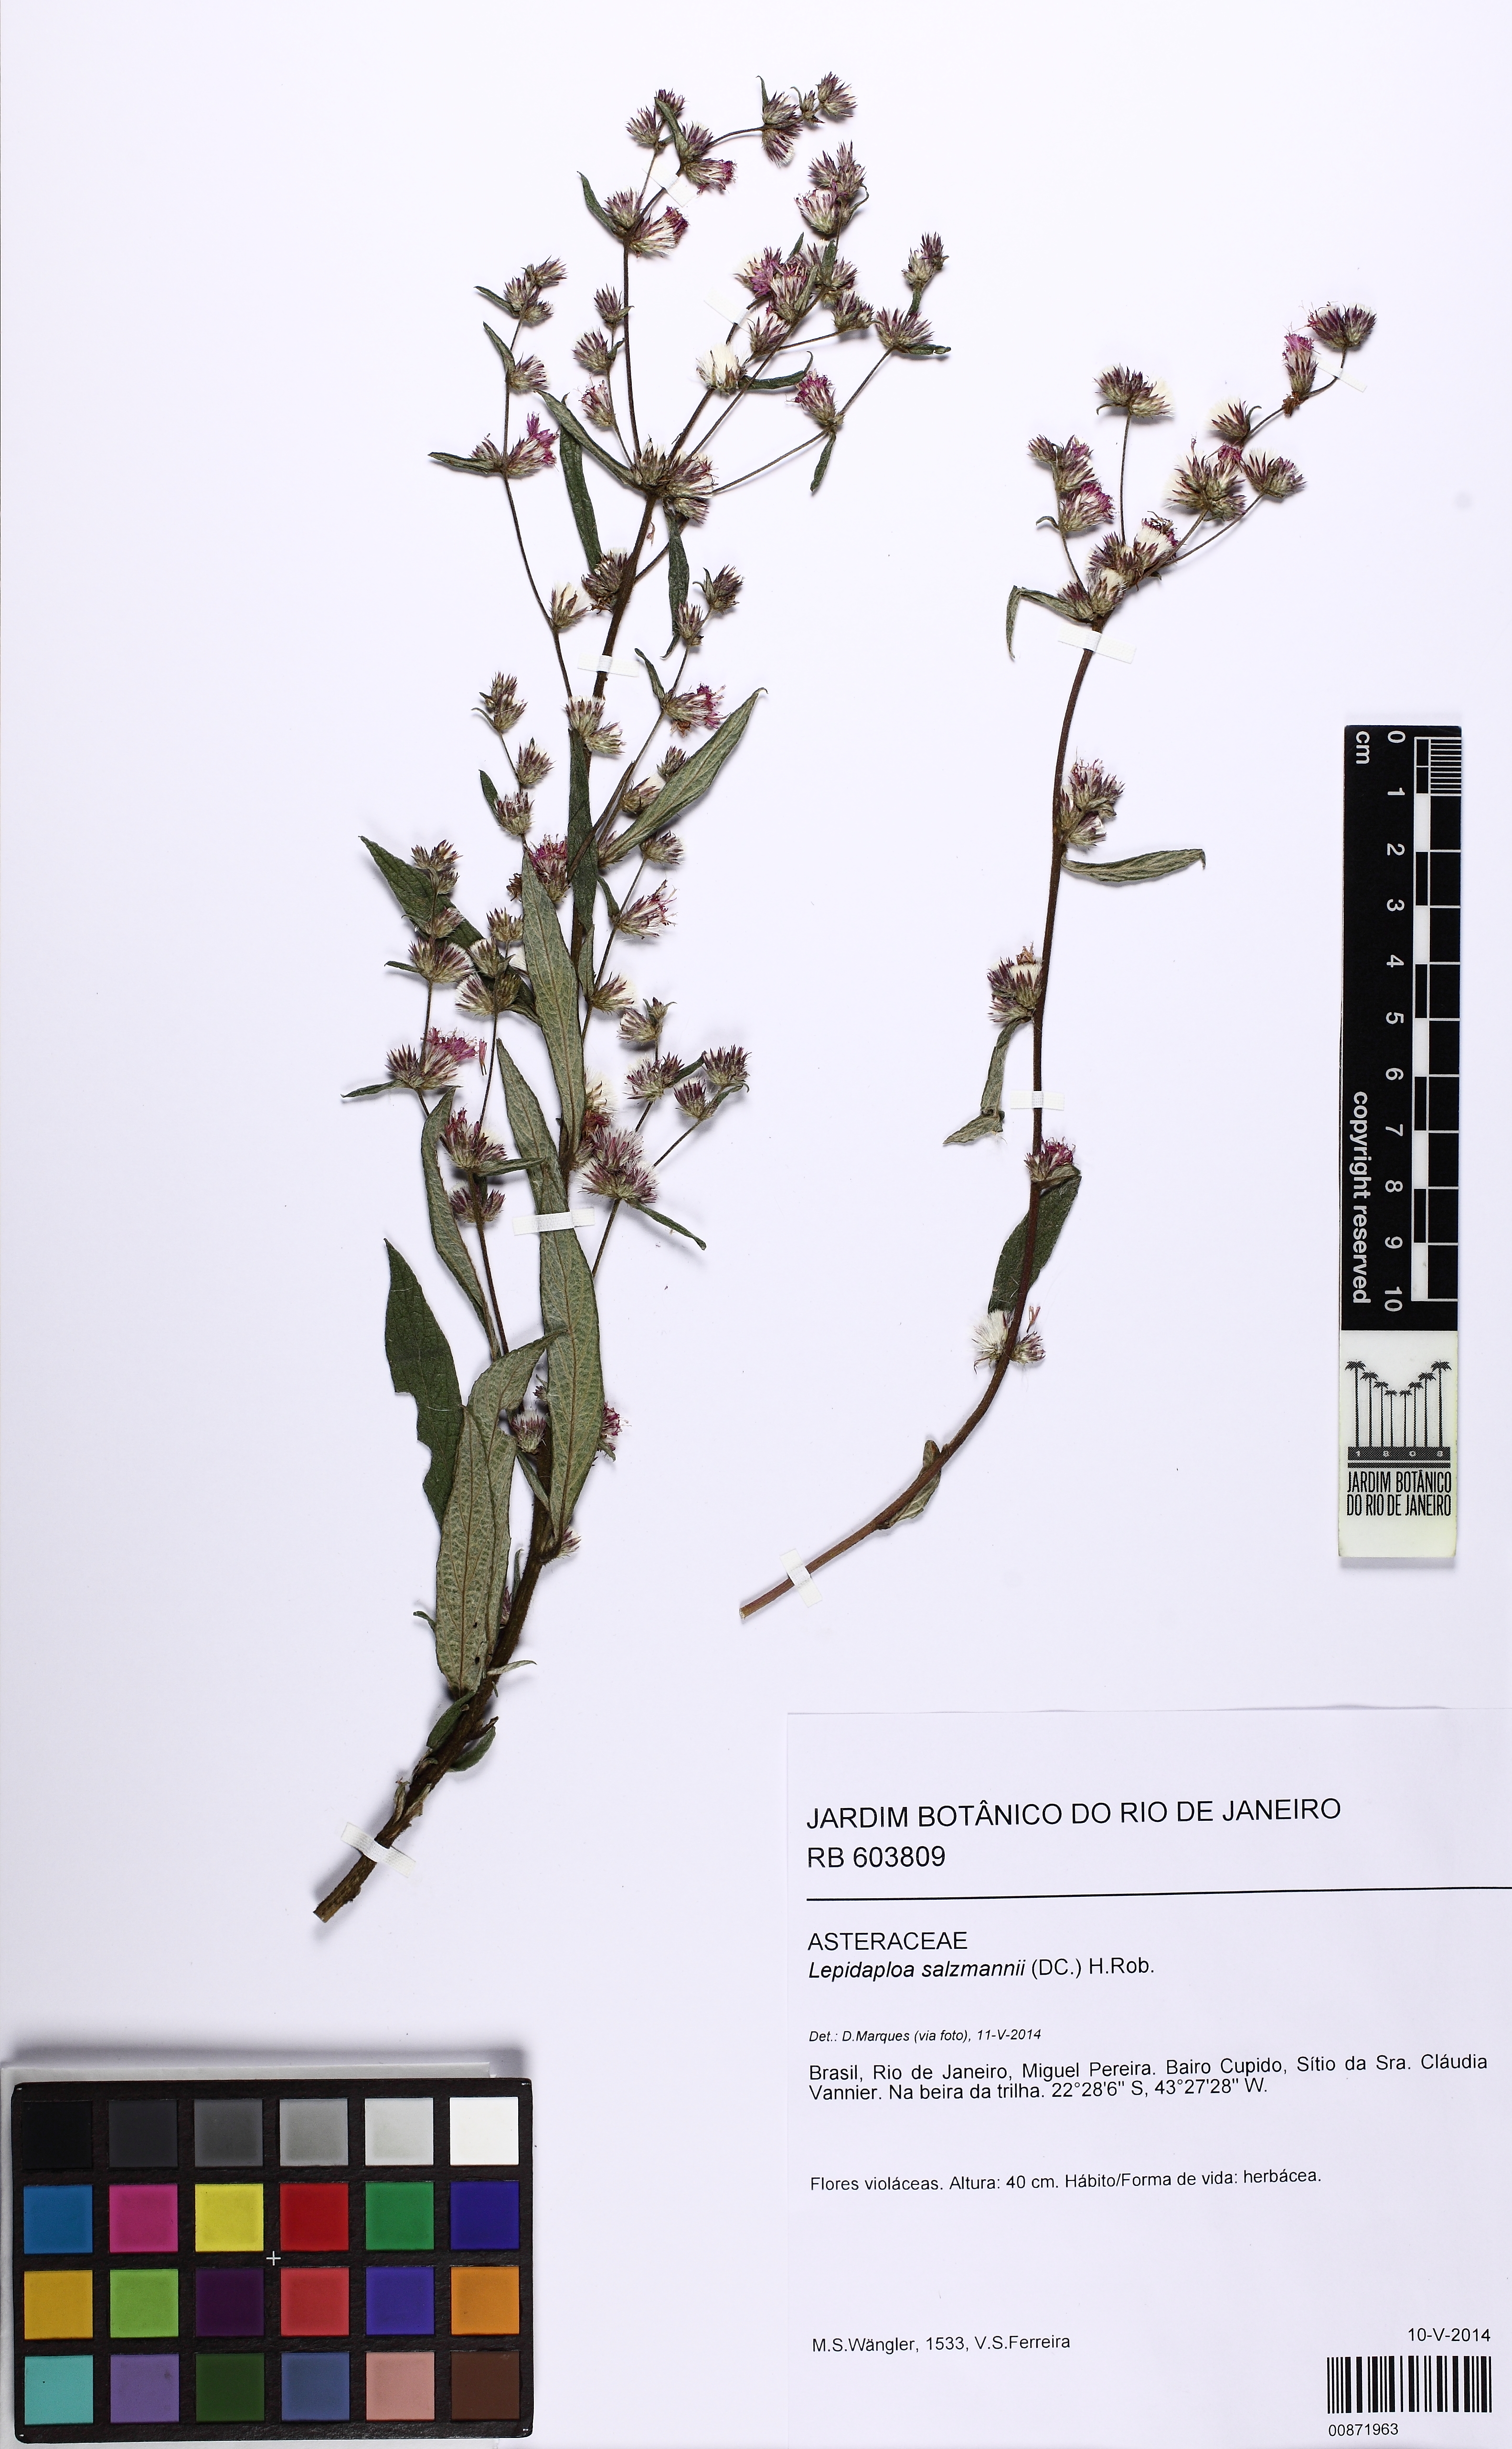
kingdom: Plantae
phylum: Tracheophyta
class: Magnoliopsida
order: Asterales
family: Asteraceae
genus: Lepidaploa
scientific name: Lepidaploa salzmannii
